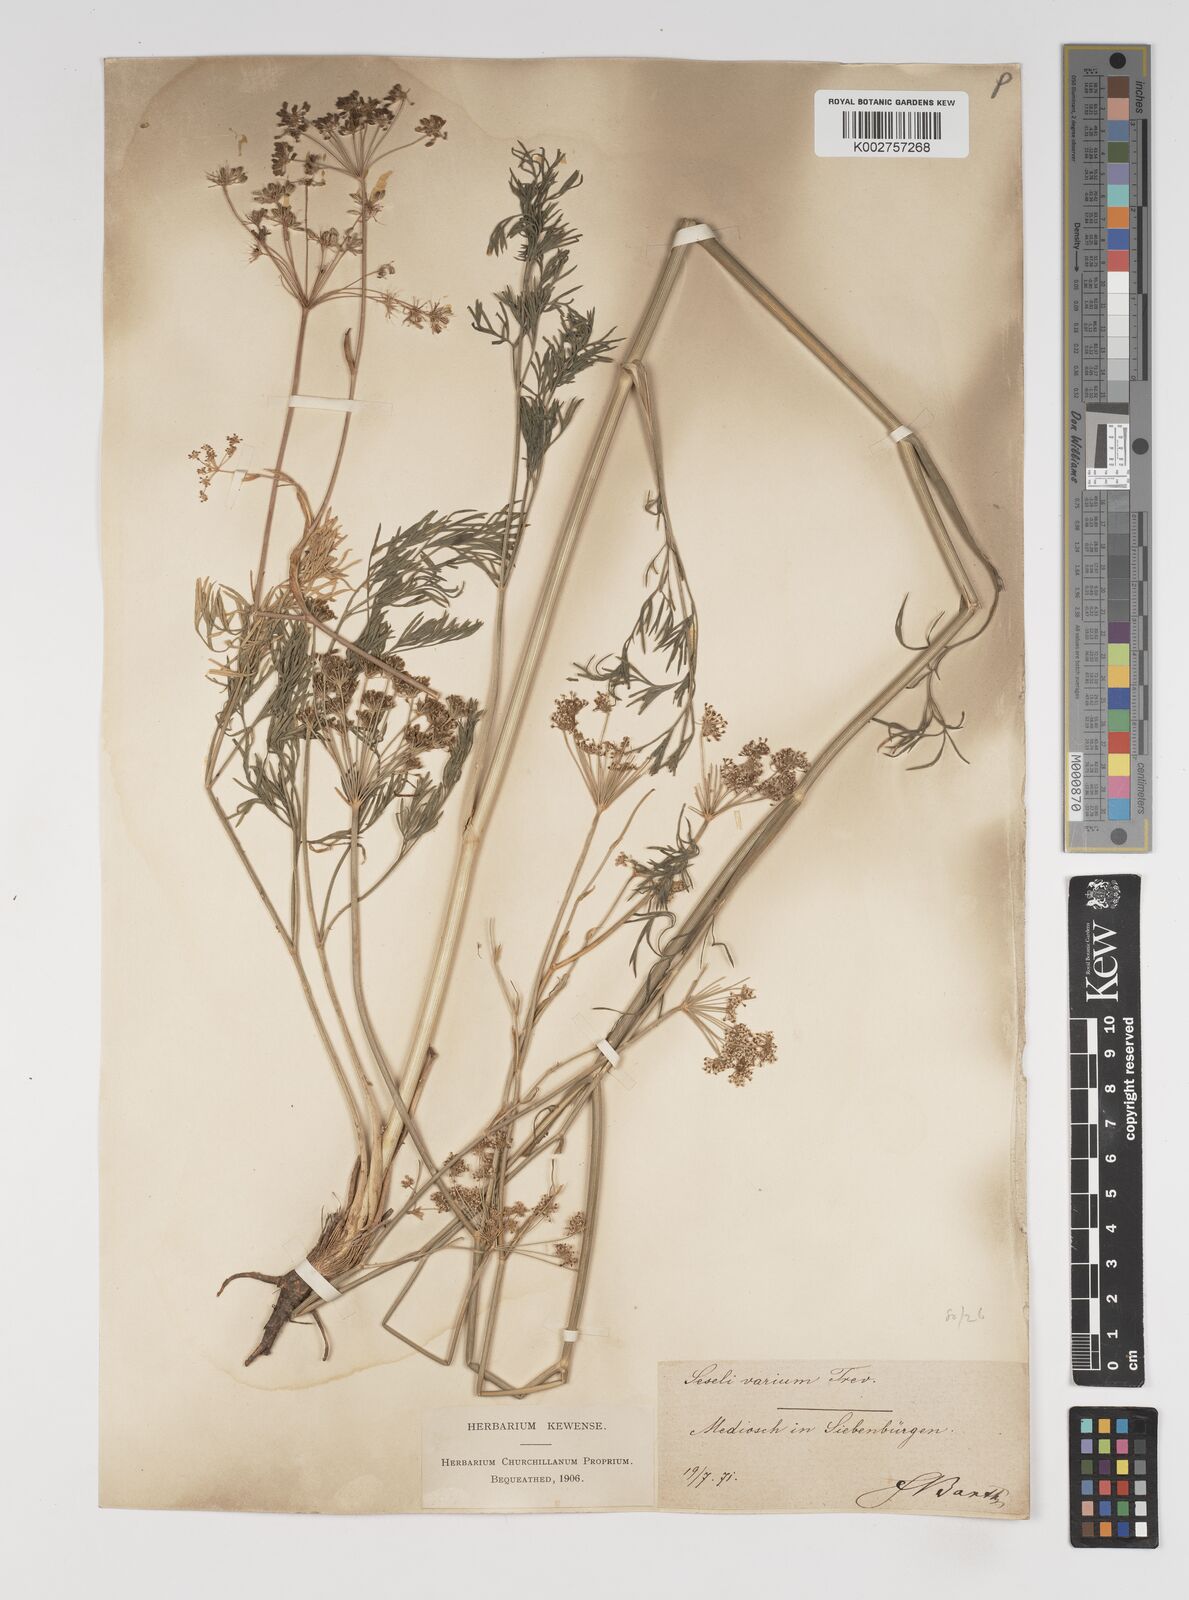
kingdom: Plantae
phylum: Tracheophyta
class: Magnoliopsida
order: Apiales
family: Apiaceae
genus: Seseli
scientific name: Seseli pallasii
